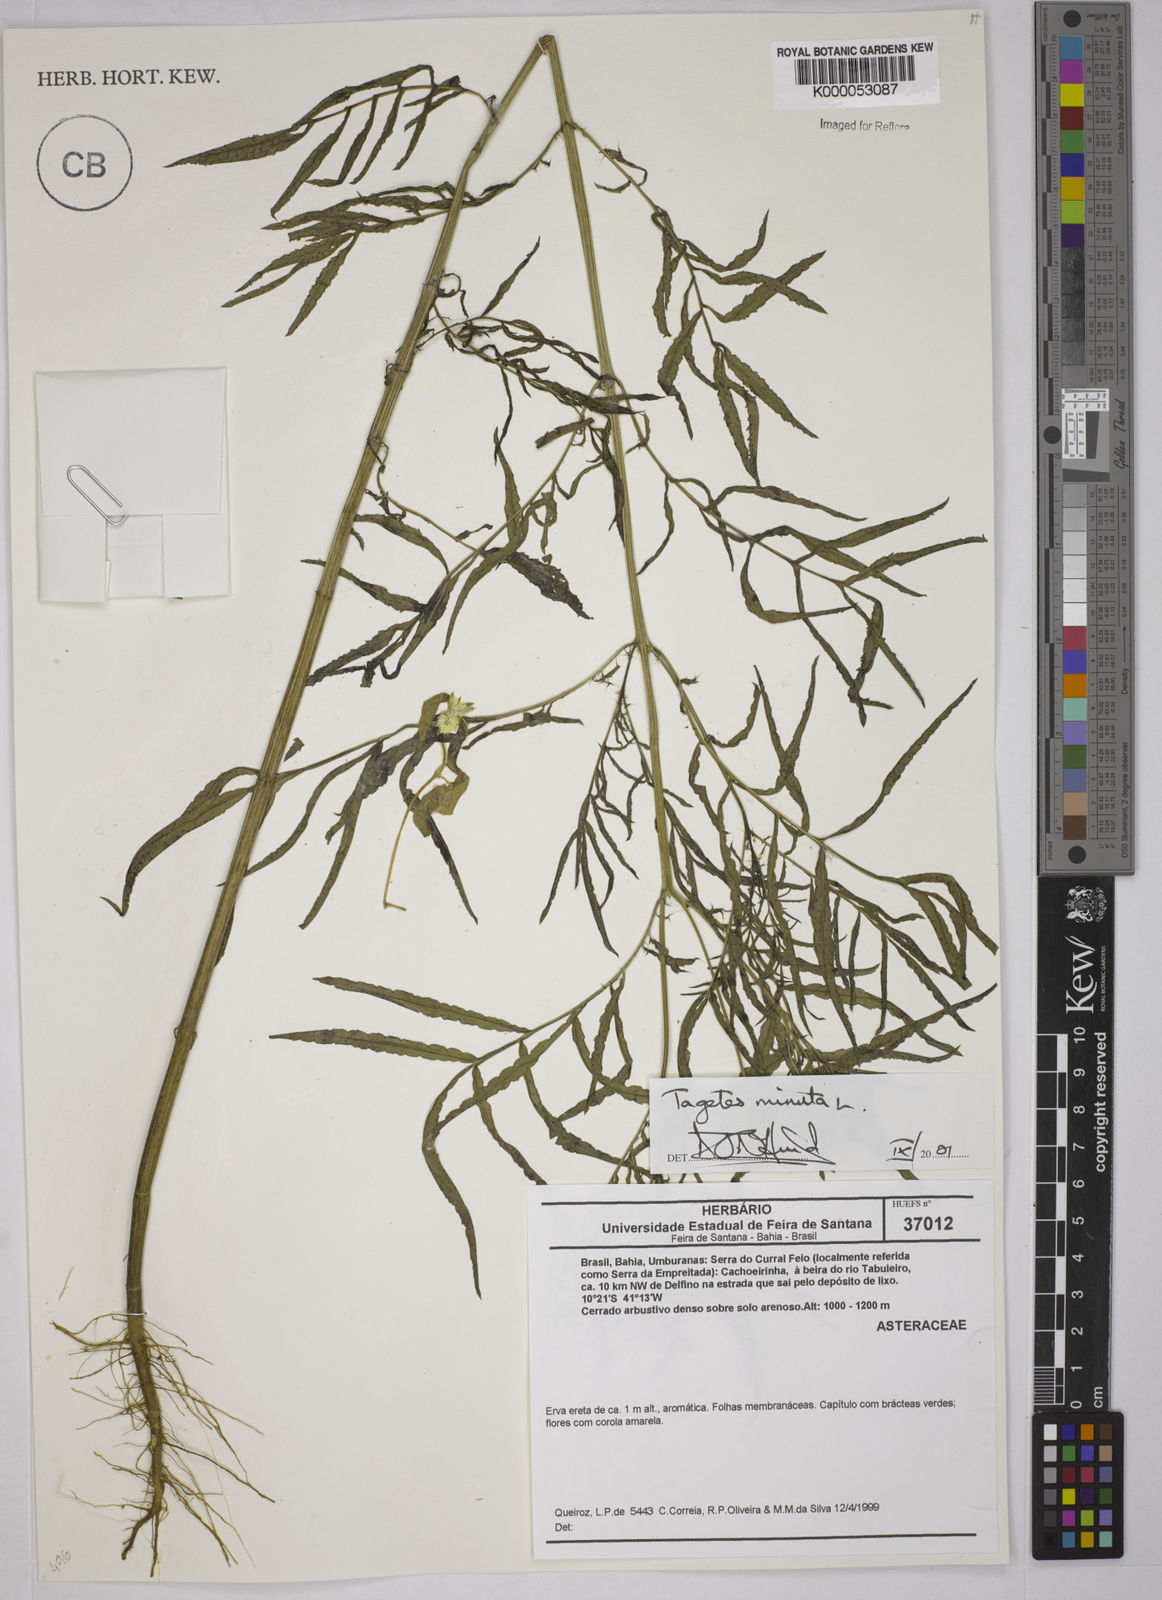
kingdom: Plantae
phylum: Tracheophyta
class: Magnoliopsida
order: Asterales
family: Asteraceae
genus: Tagetes
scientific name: Tagetes minuta
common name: Muster john henry
